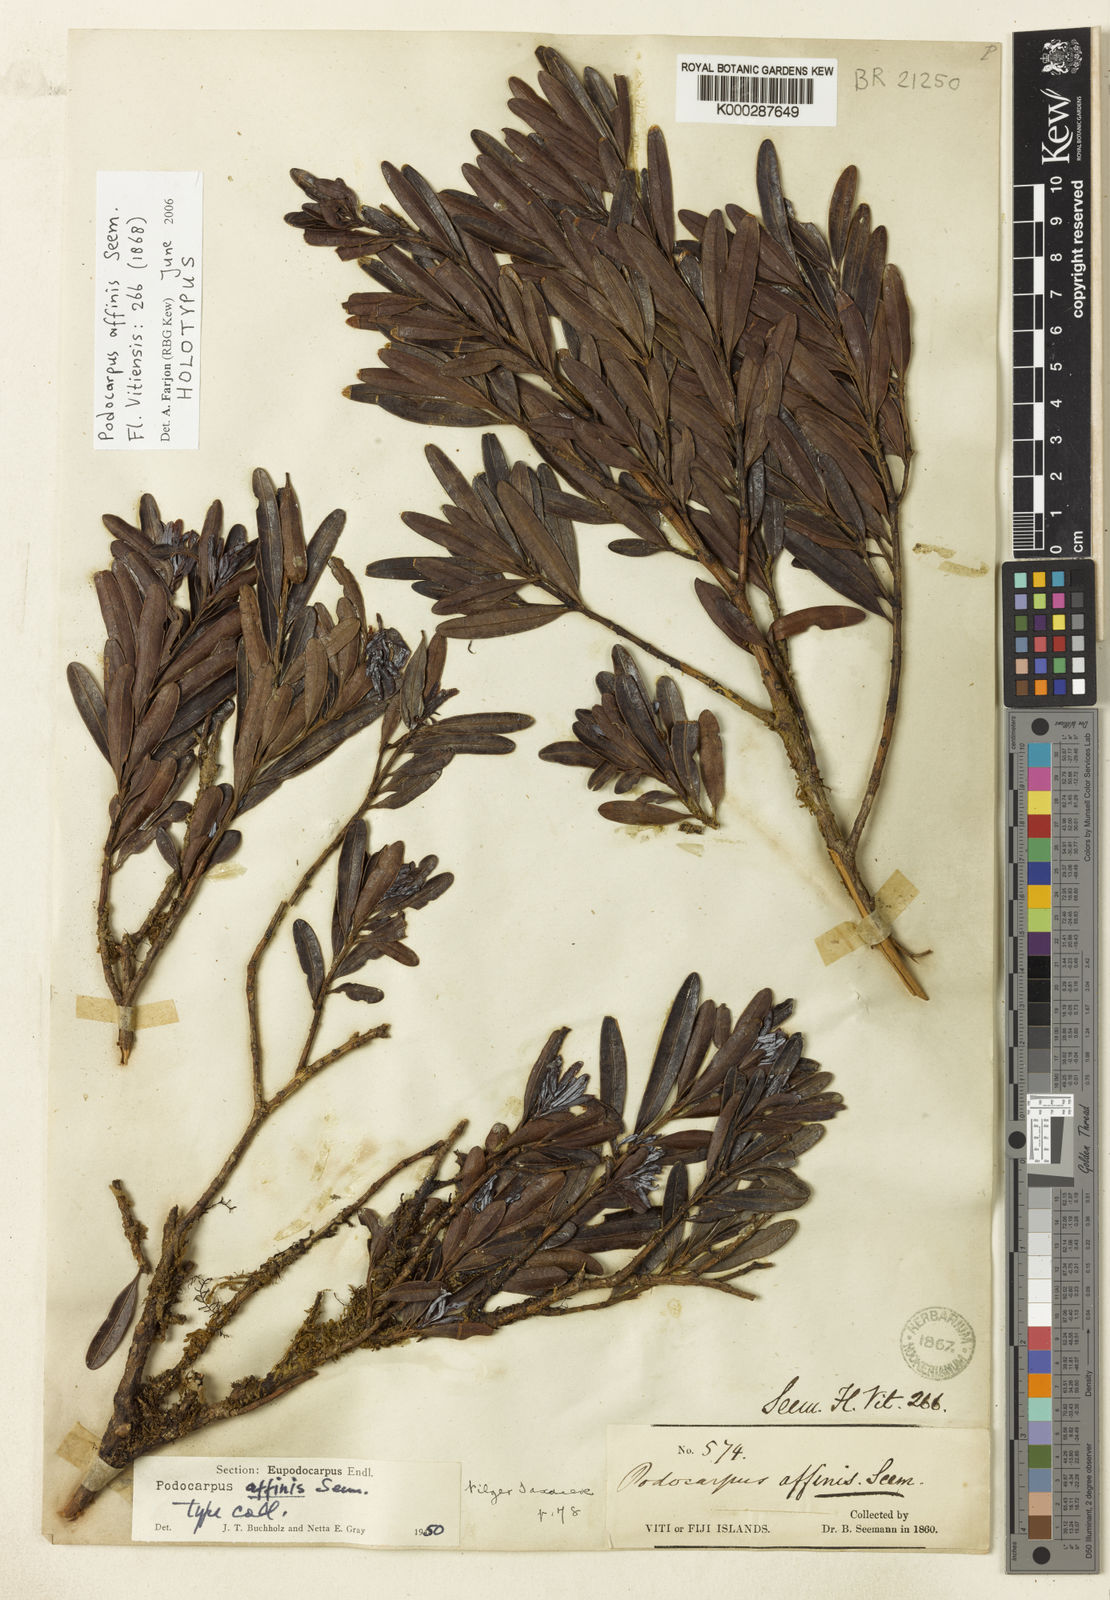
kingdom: Plantae
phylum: Tracheophyta
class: Pinopsida
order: Pinales
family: Podocarpaceae
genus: Podocarpus
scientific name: Podocarpus affinis
